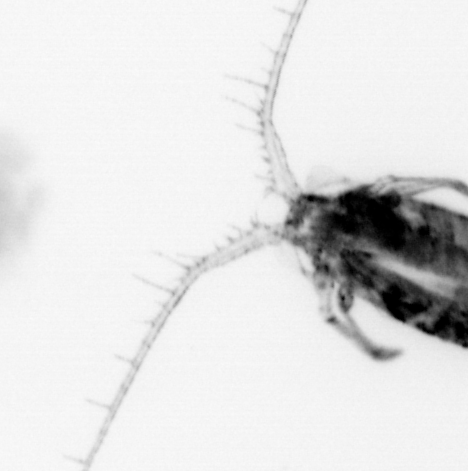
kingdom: Animalia
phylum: Arthropoda
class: Copepoda
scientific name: Copepoda
